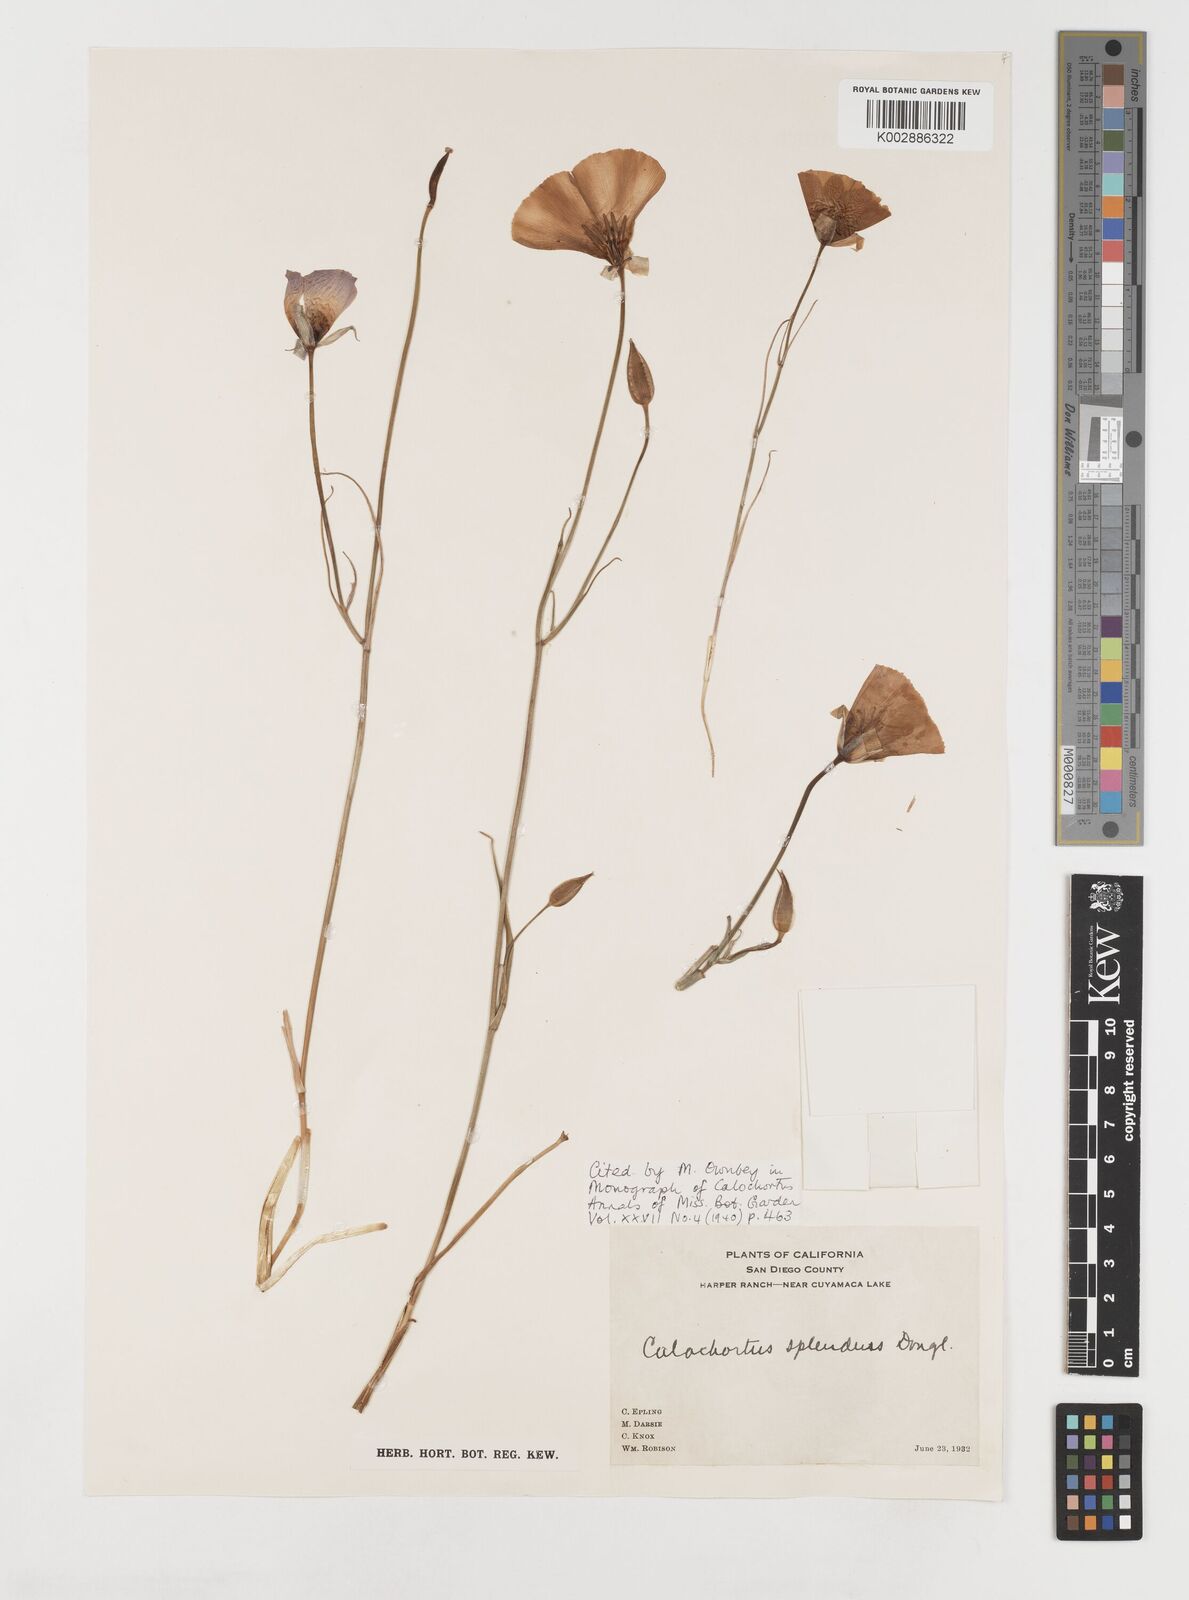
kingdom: Plantae
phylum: Tracheophyta
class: Liliopsida
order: Liliales
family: Liliaceae
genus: Calochortus
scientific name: Calochortus splendens
